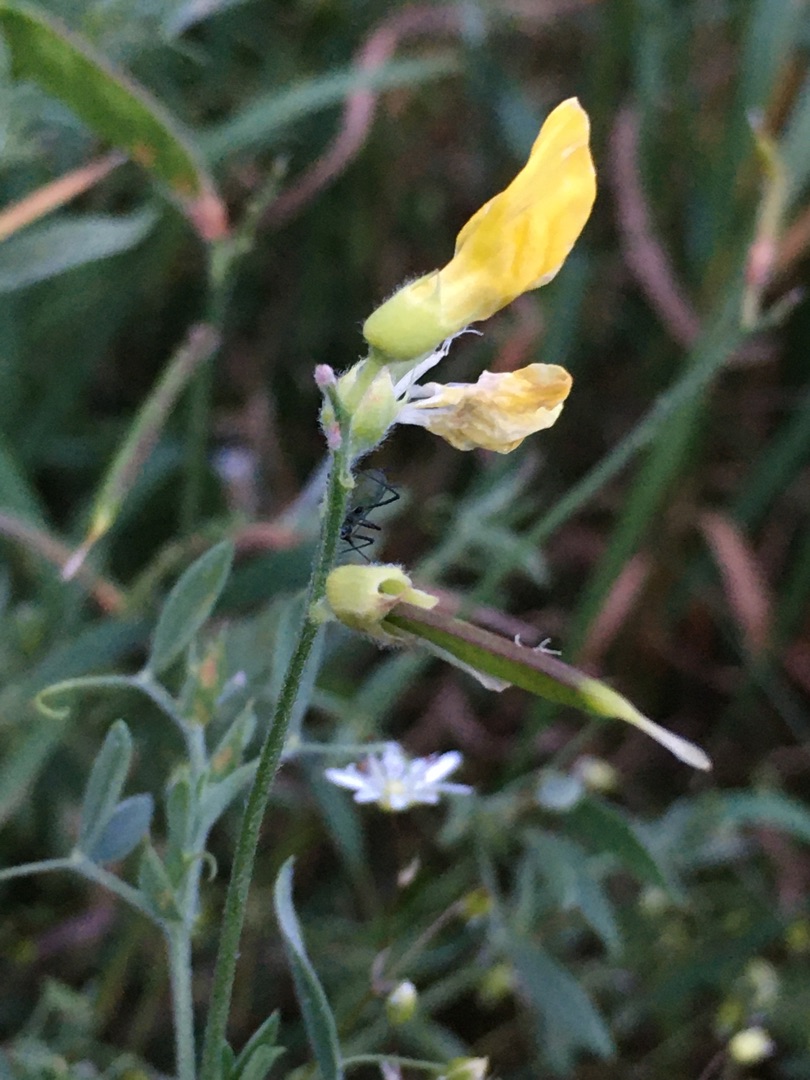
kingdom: Plantae
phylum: Tracheophyta
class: Magnoliopsida
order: Fabales
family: Fabaceae
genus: Lathyrus
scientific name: Lathyrus pratensis
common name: Gul fladbælg
